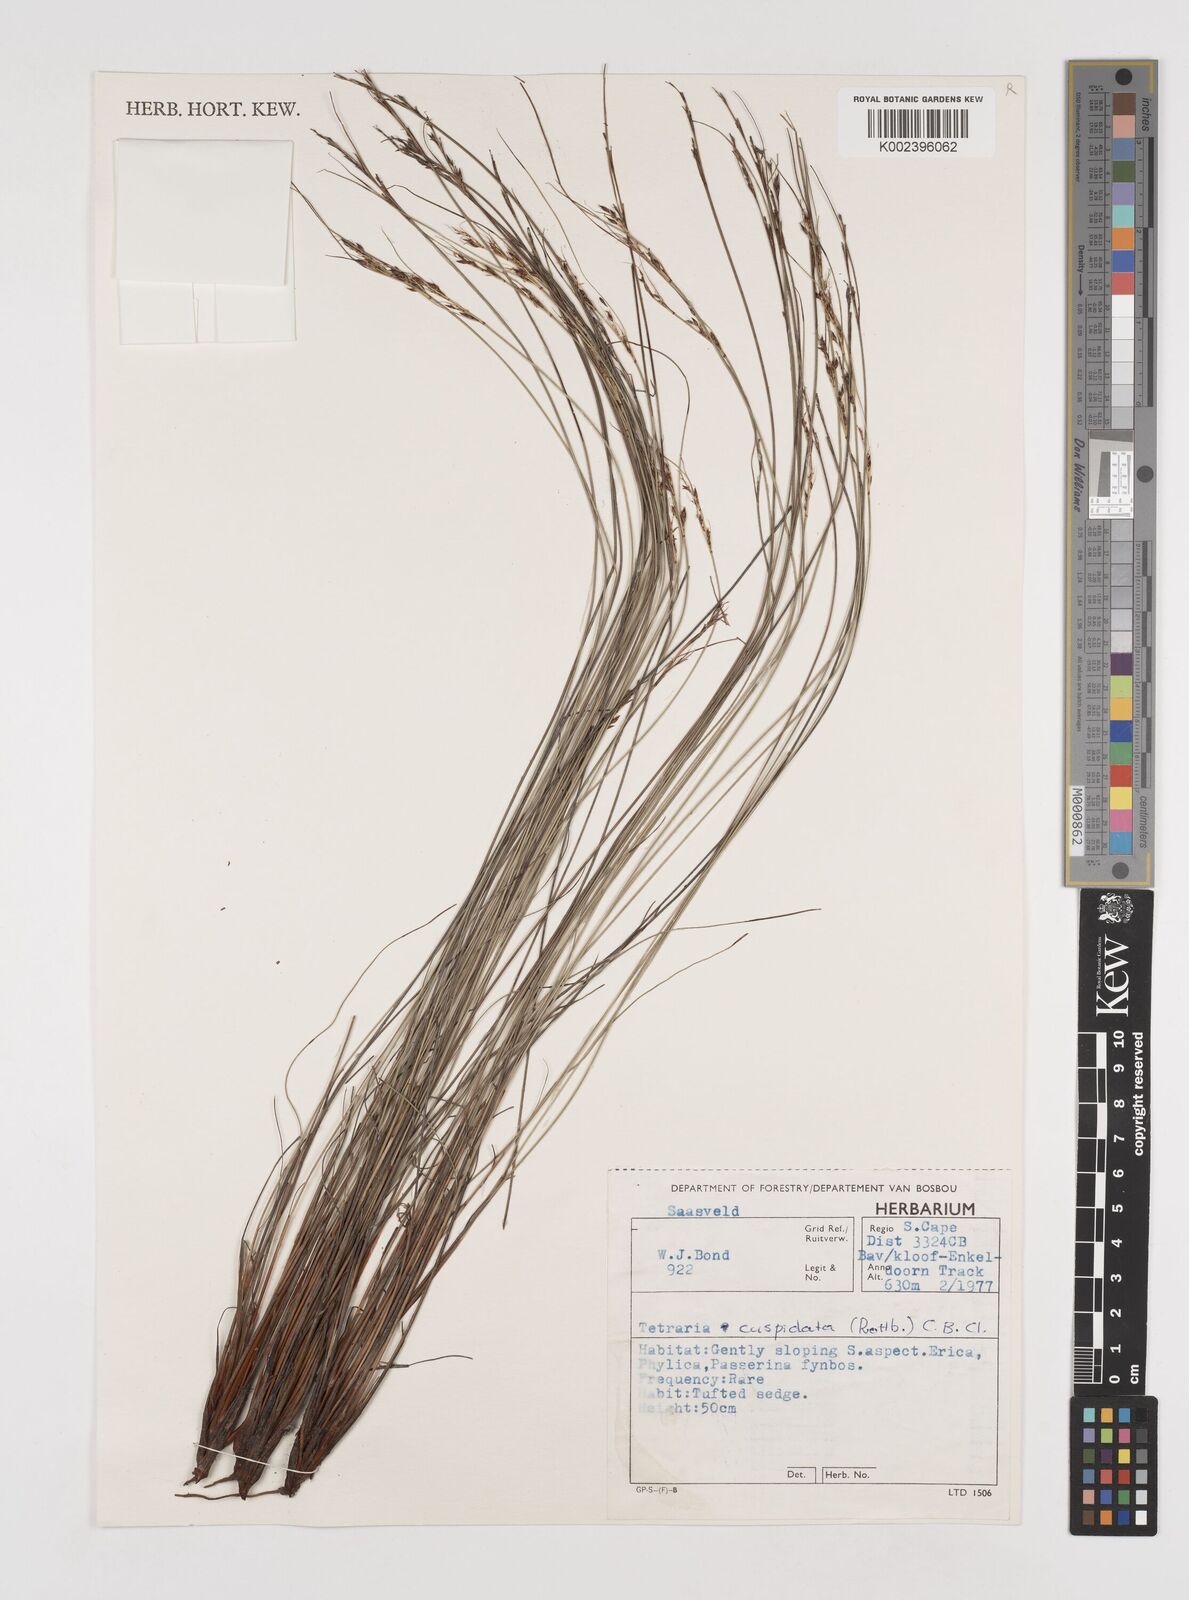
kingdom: Plantae
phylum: Tracheophyta
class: Liliopsida
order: Poales
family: Cyperaceae
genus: Schoenus
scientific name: Schoenus cuspidatus
